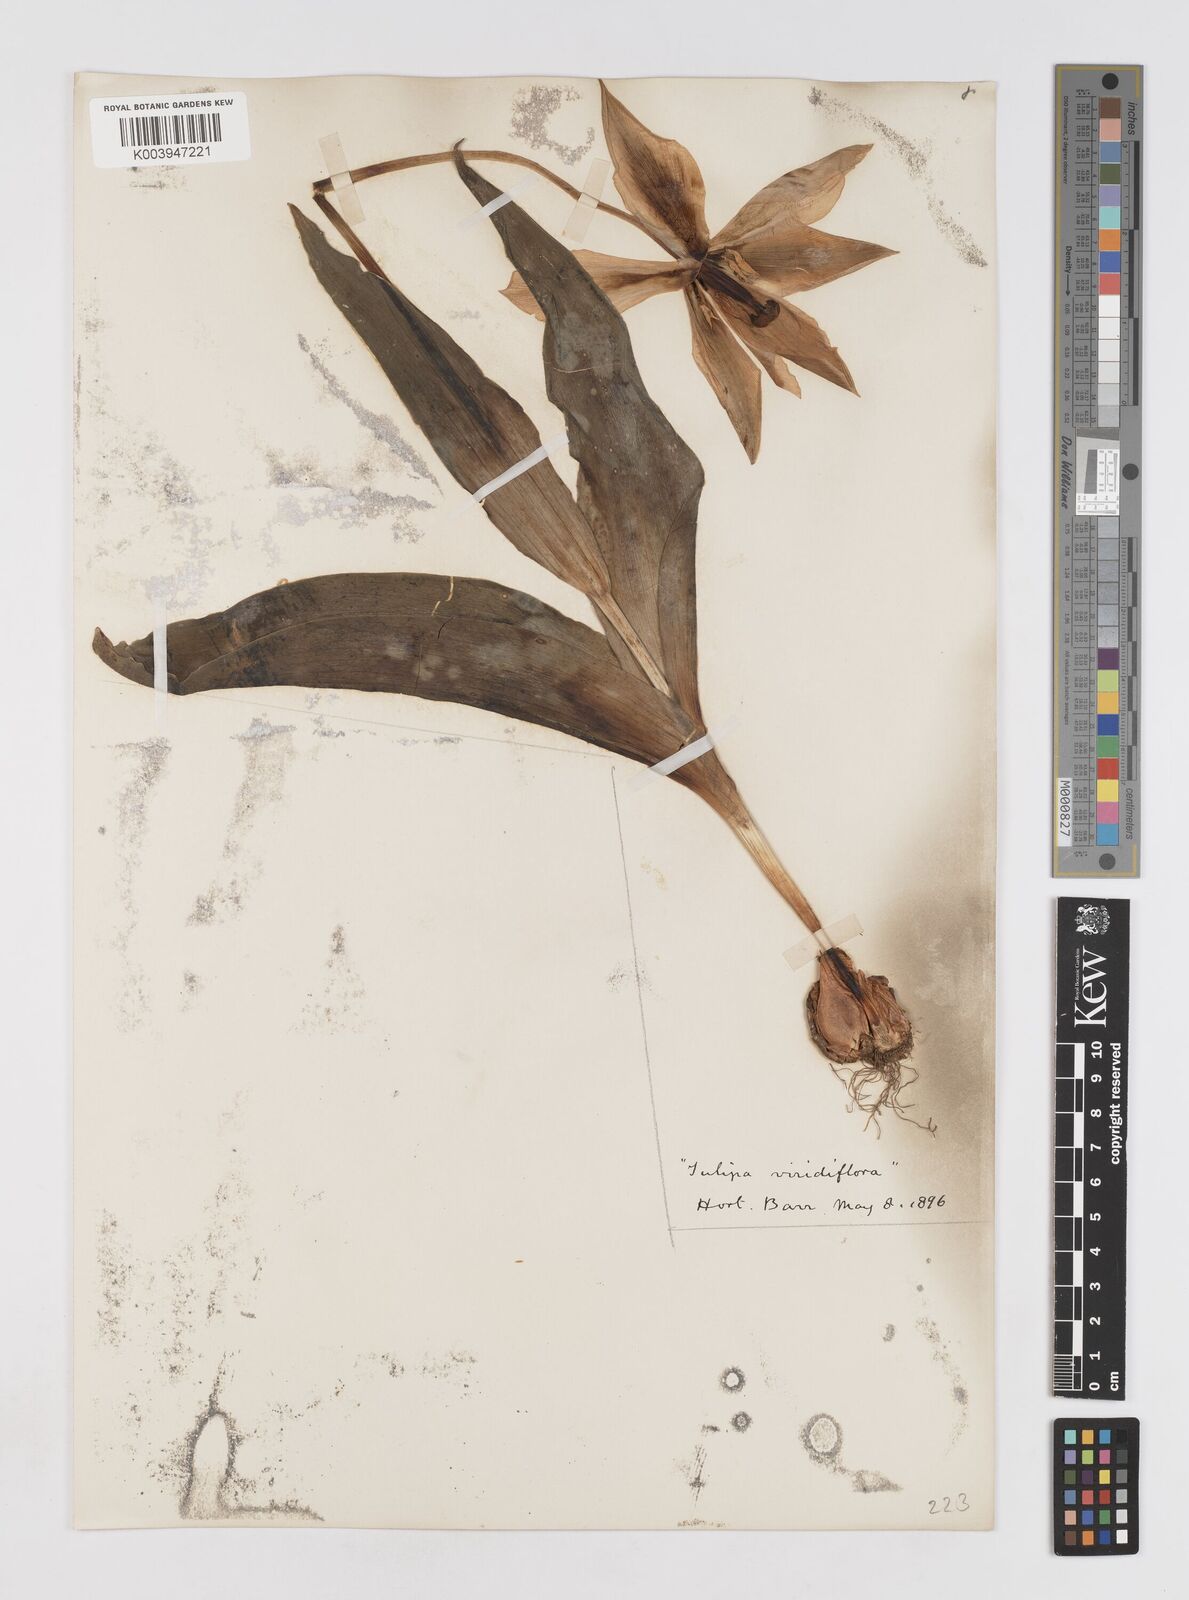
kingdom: Plantae
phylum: Tracheophyta
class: Liliopsida
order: Liliales
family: Liliaceae
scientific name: Liliaceae
